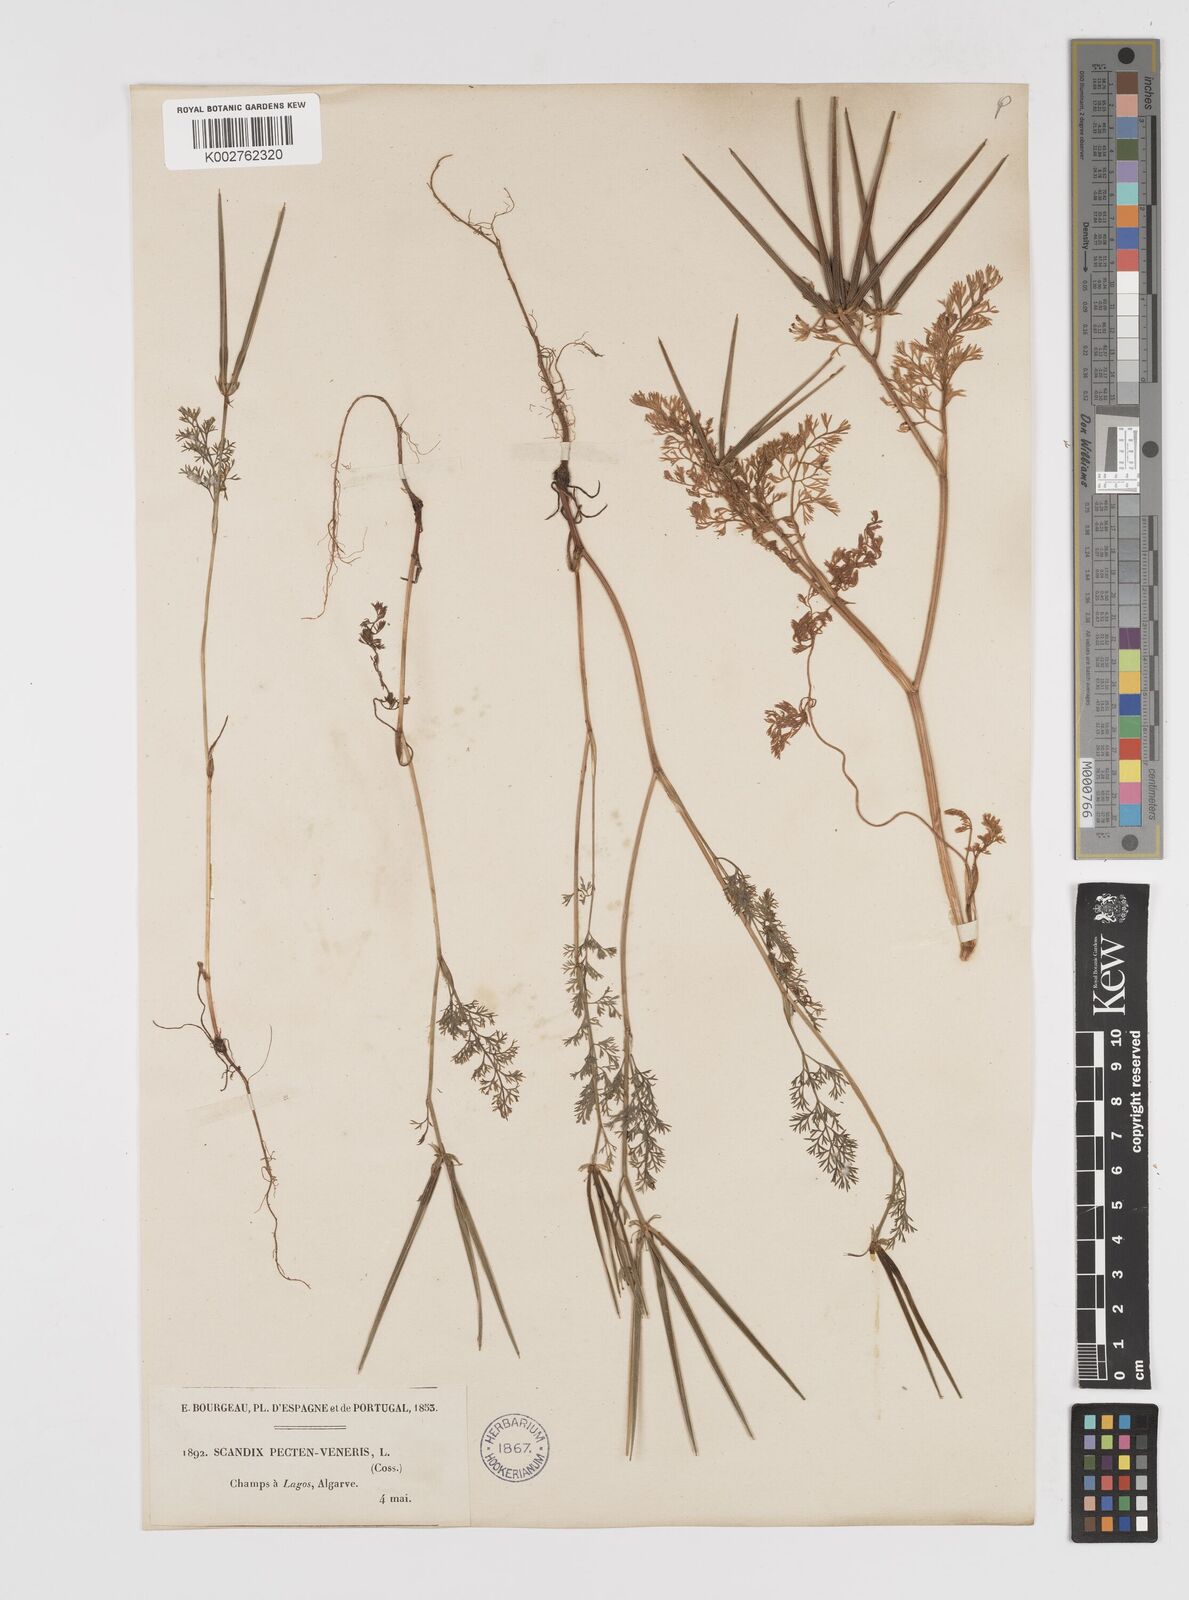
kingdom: Plantae
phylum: Tracheophyta
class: Magnoliopsida
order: Apiales
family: Apiaceae
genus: Scandix
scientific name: Scandix pecten-veneris
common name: Shepherd's-needle
